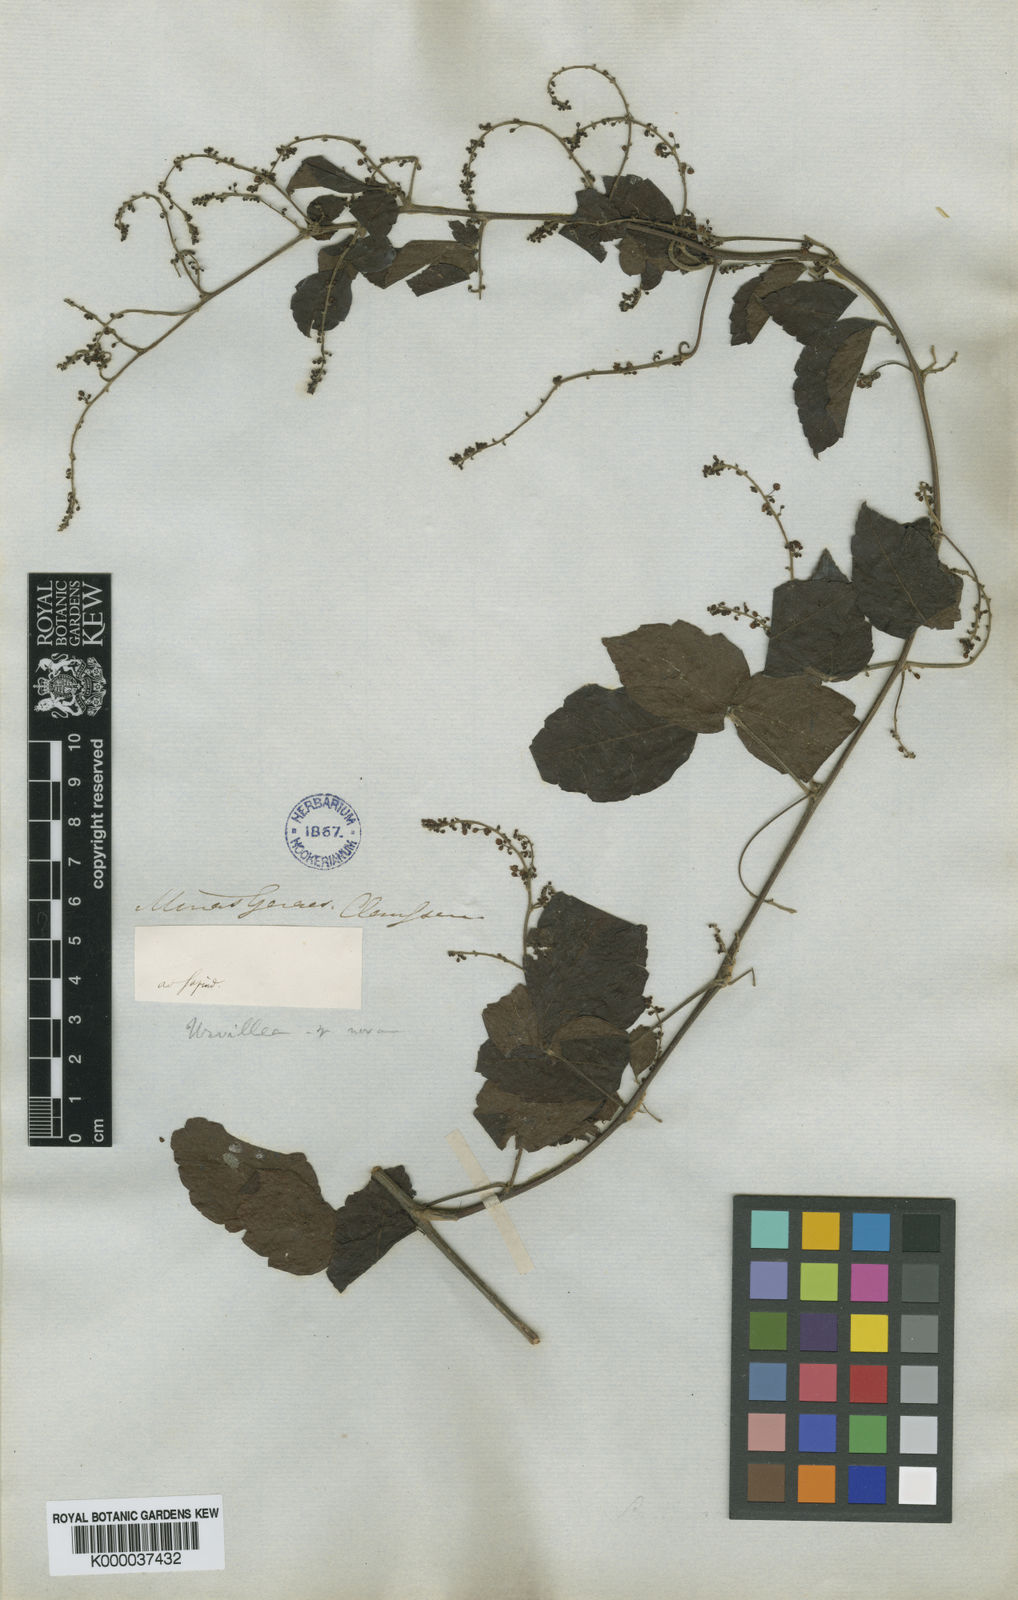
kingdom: Plantae
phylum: Tracheophyta
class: Magnoliopsida
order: Sapindales
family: Sapindaceae
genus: Urvillea
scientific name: Urvillea laevis
